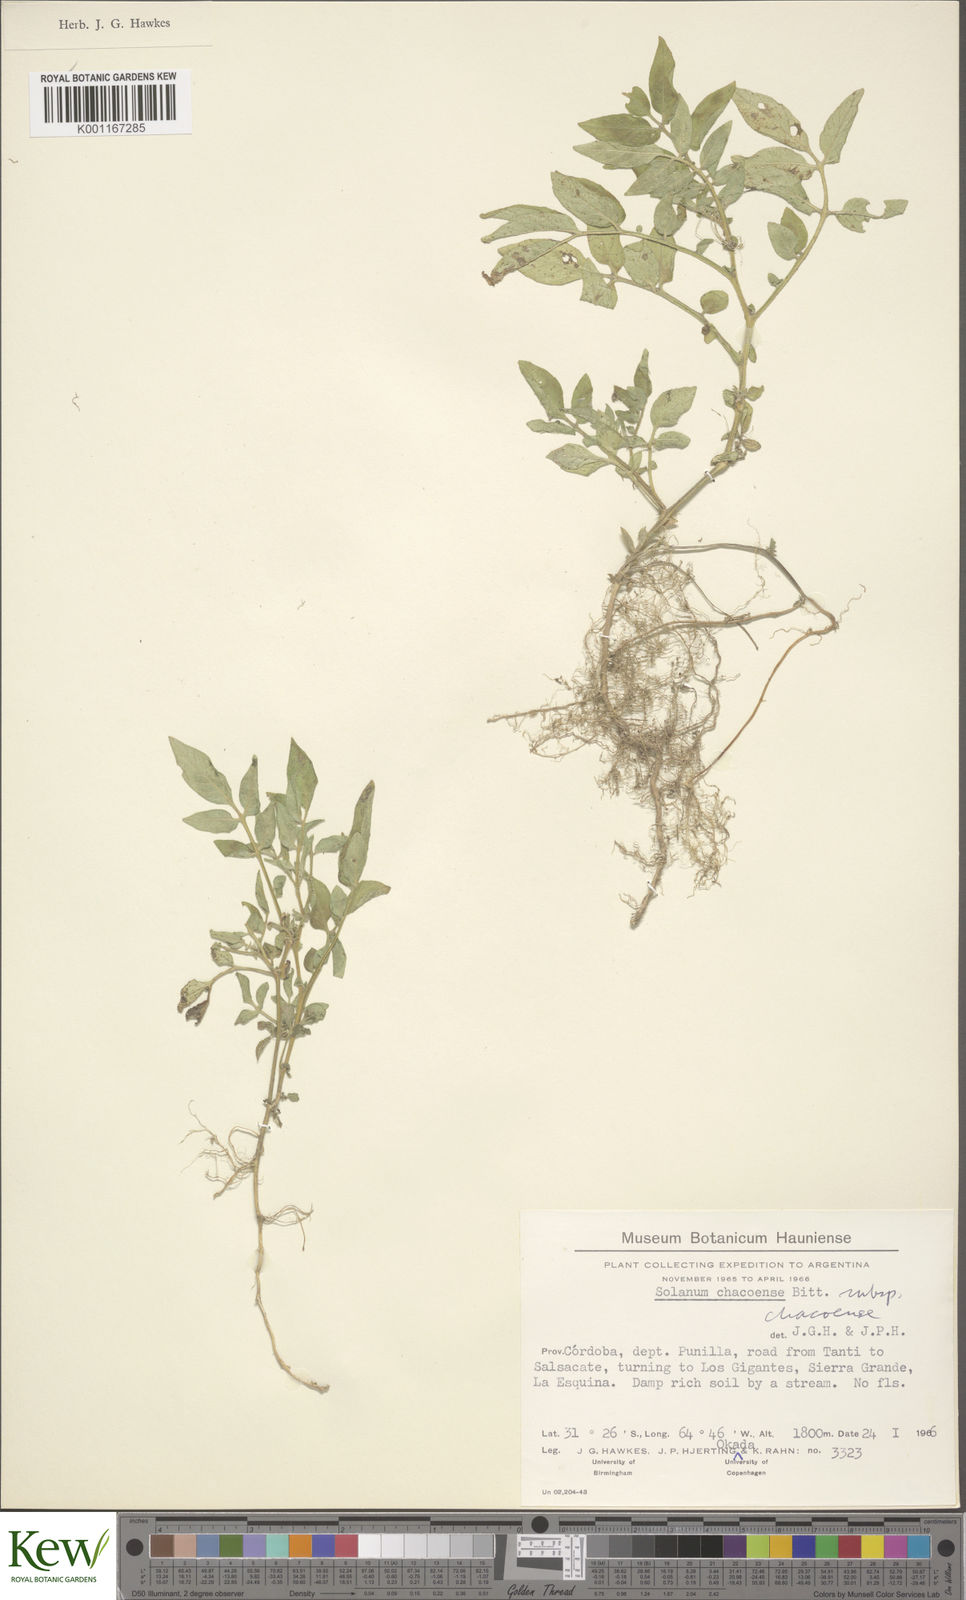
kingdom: Plantae
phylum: Tracheophyta
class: Magnoliopsida
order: Solanales
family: Solanaceae
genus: Solanum
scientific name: Solanum chacoense
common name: Chaco potato
